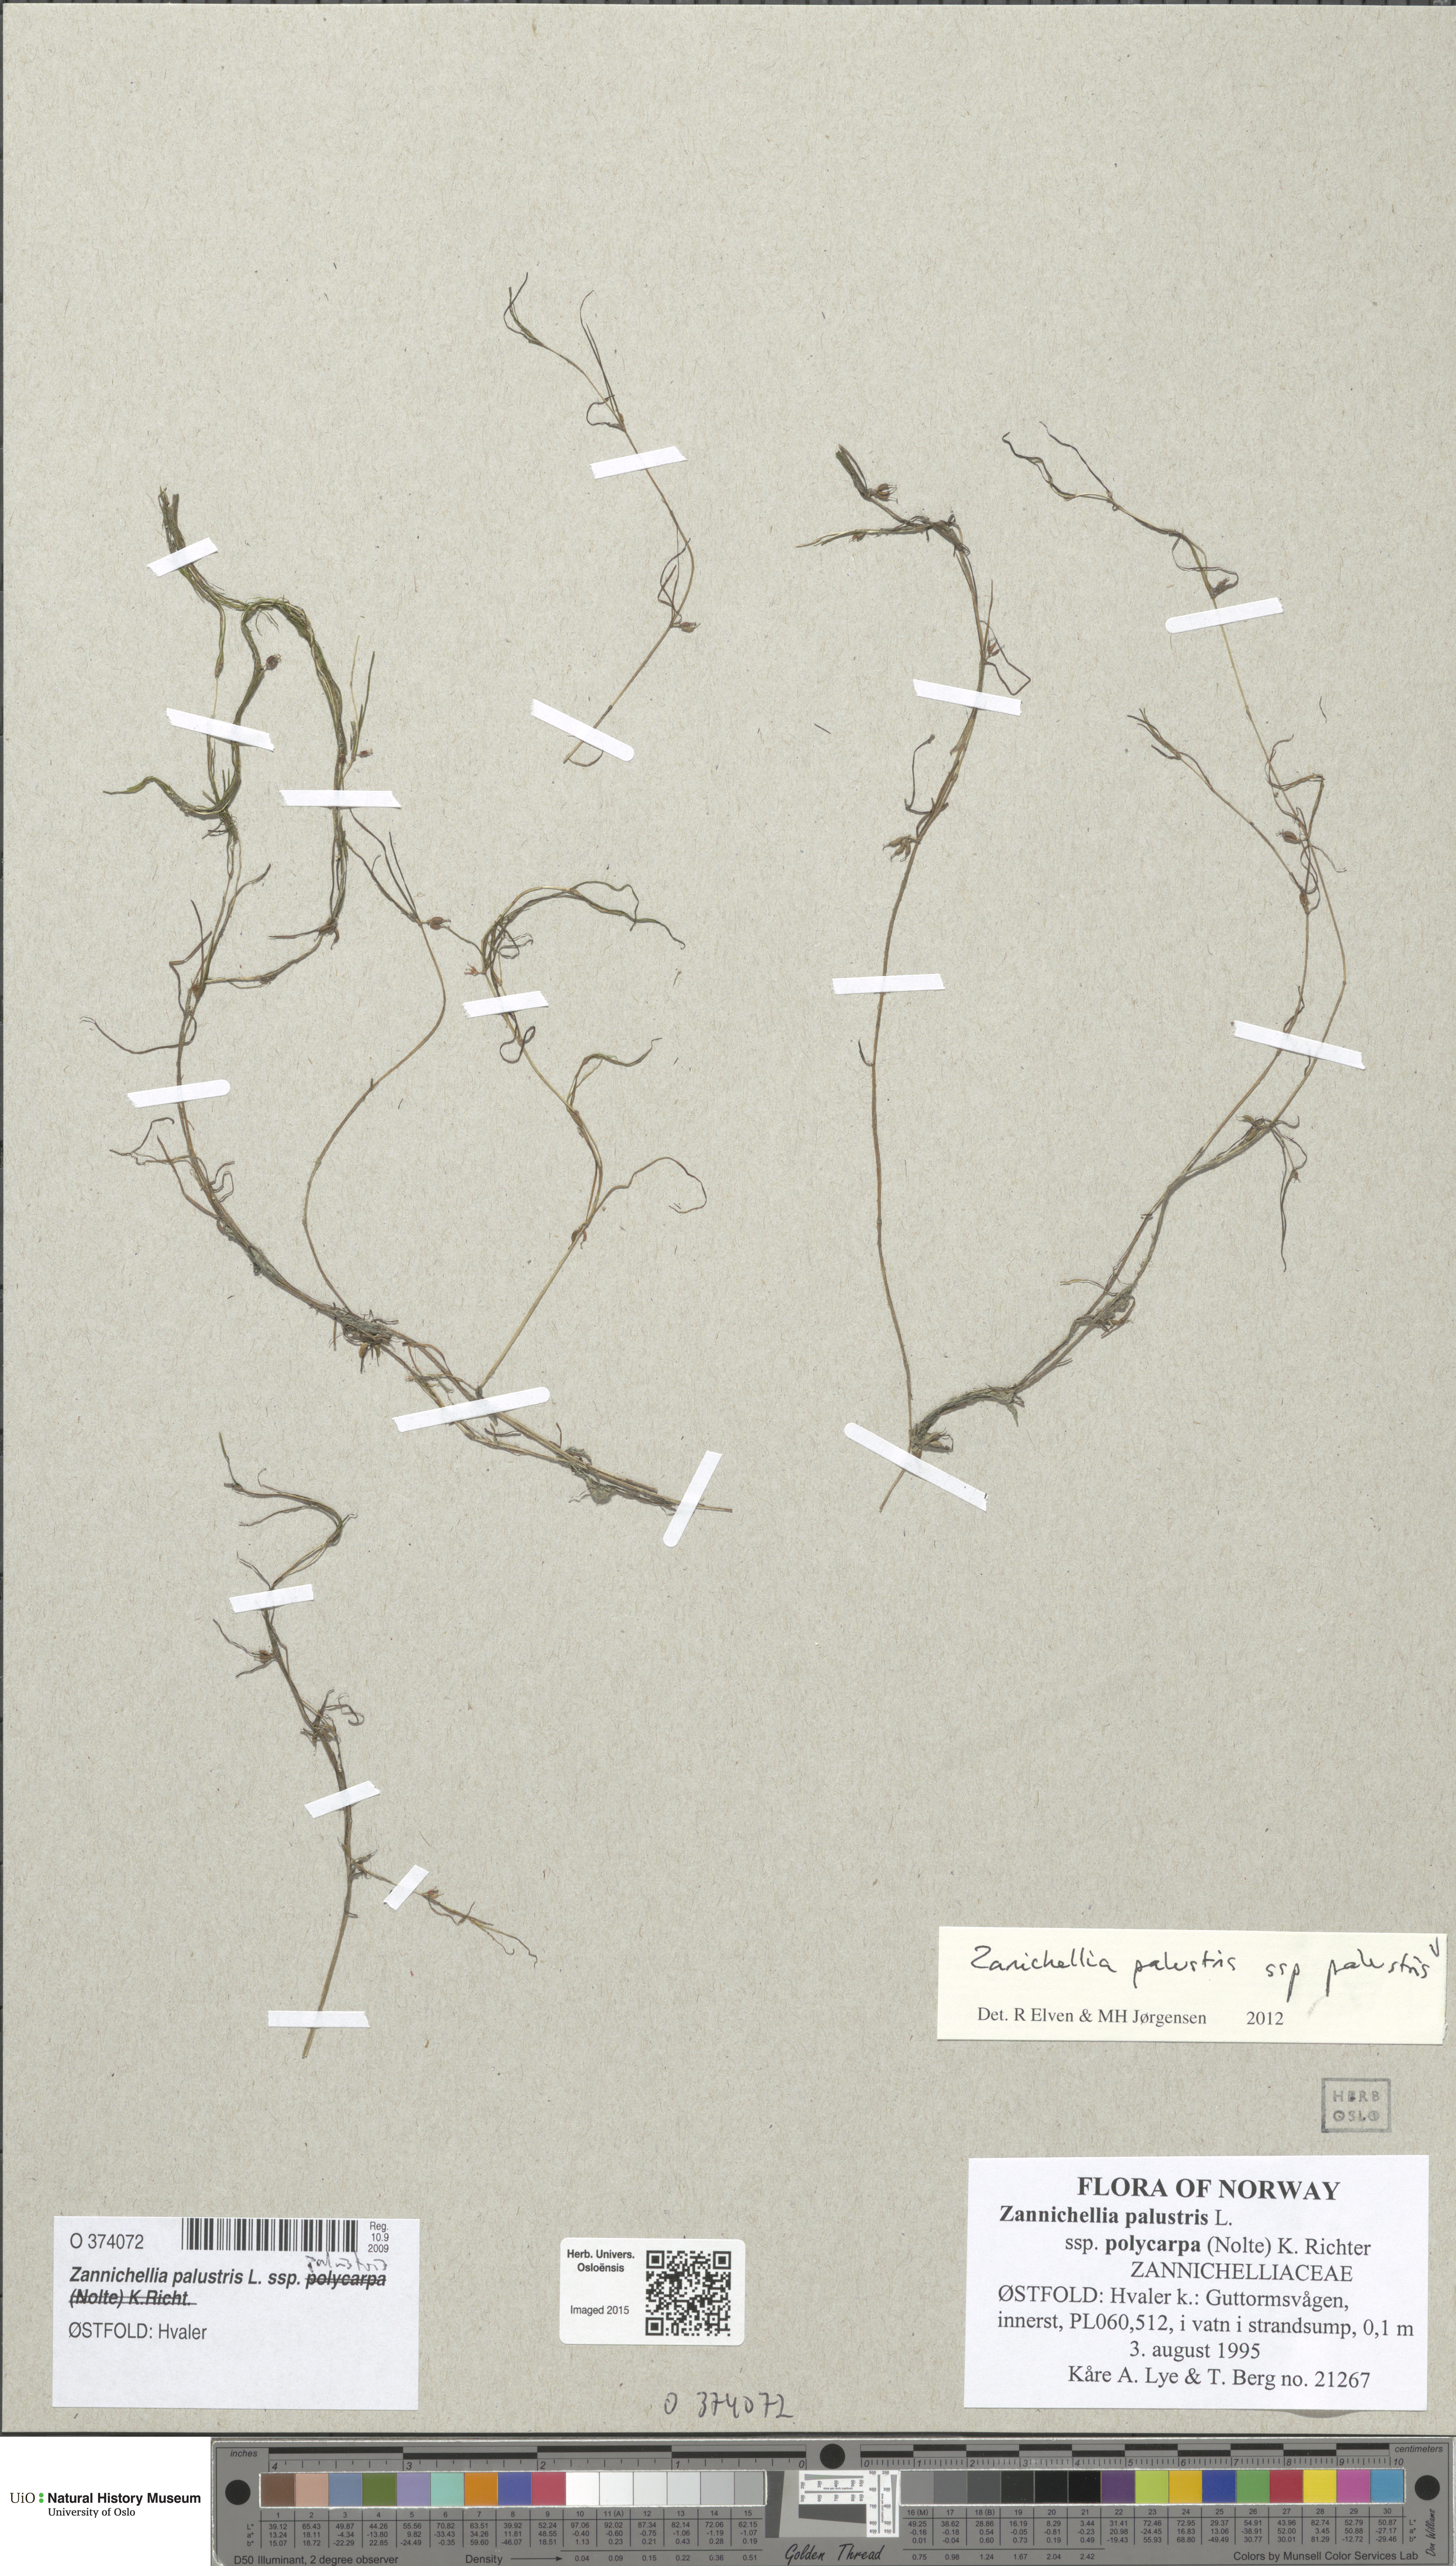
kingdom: Plantae
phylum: Tracheophyta
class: Liliopsida
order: Alismatales
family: Potamogetonaceae
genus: Zannichellia
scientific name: Zannichellia palustris
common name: Horned pondweed
